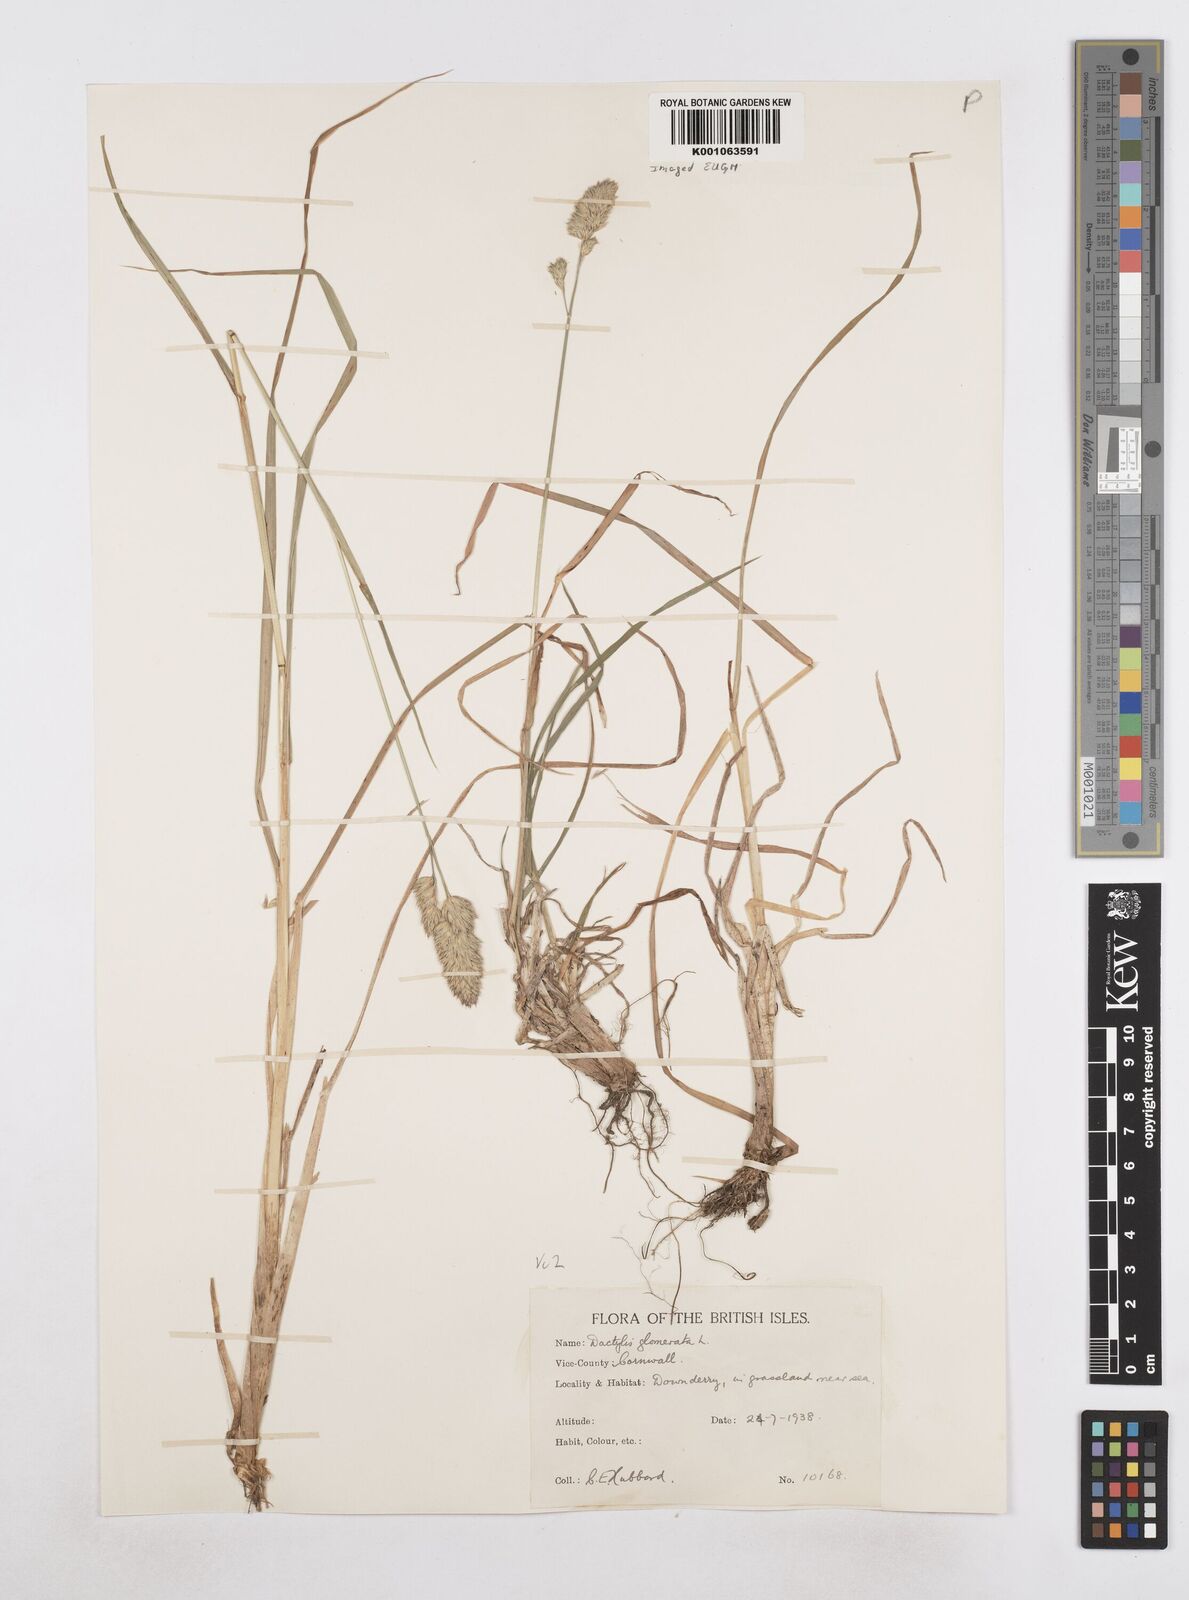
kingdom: Plantae
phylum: Tracheophyta
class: Liliopsida
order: Poales
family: Poaceae
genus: Dactylis
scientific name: Dactylis glomerata
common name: Orchardgrass
